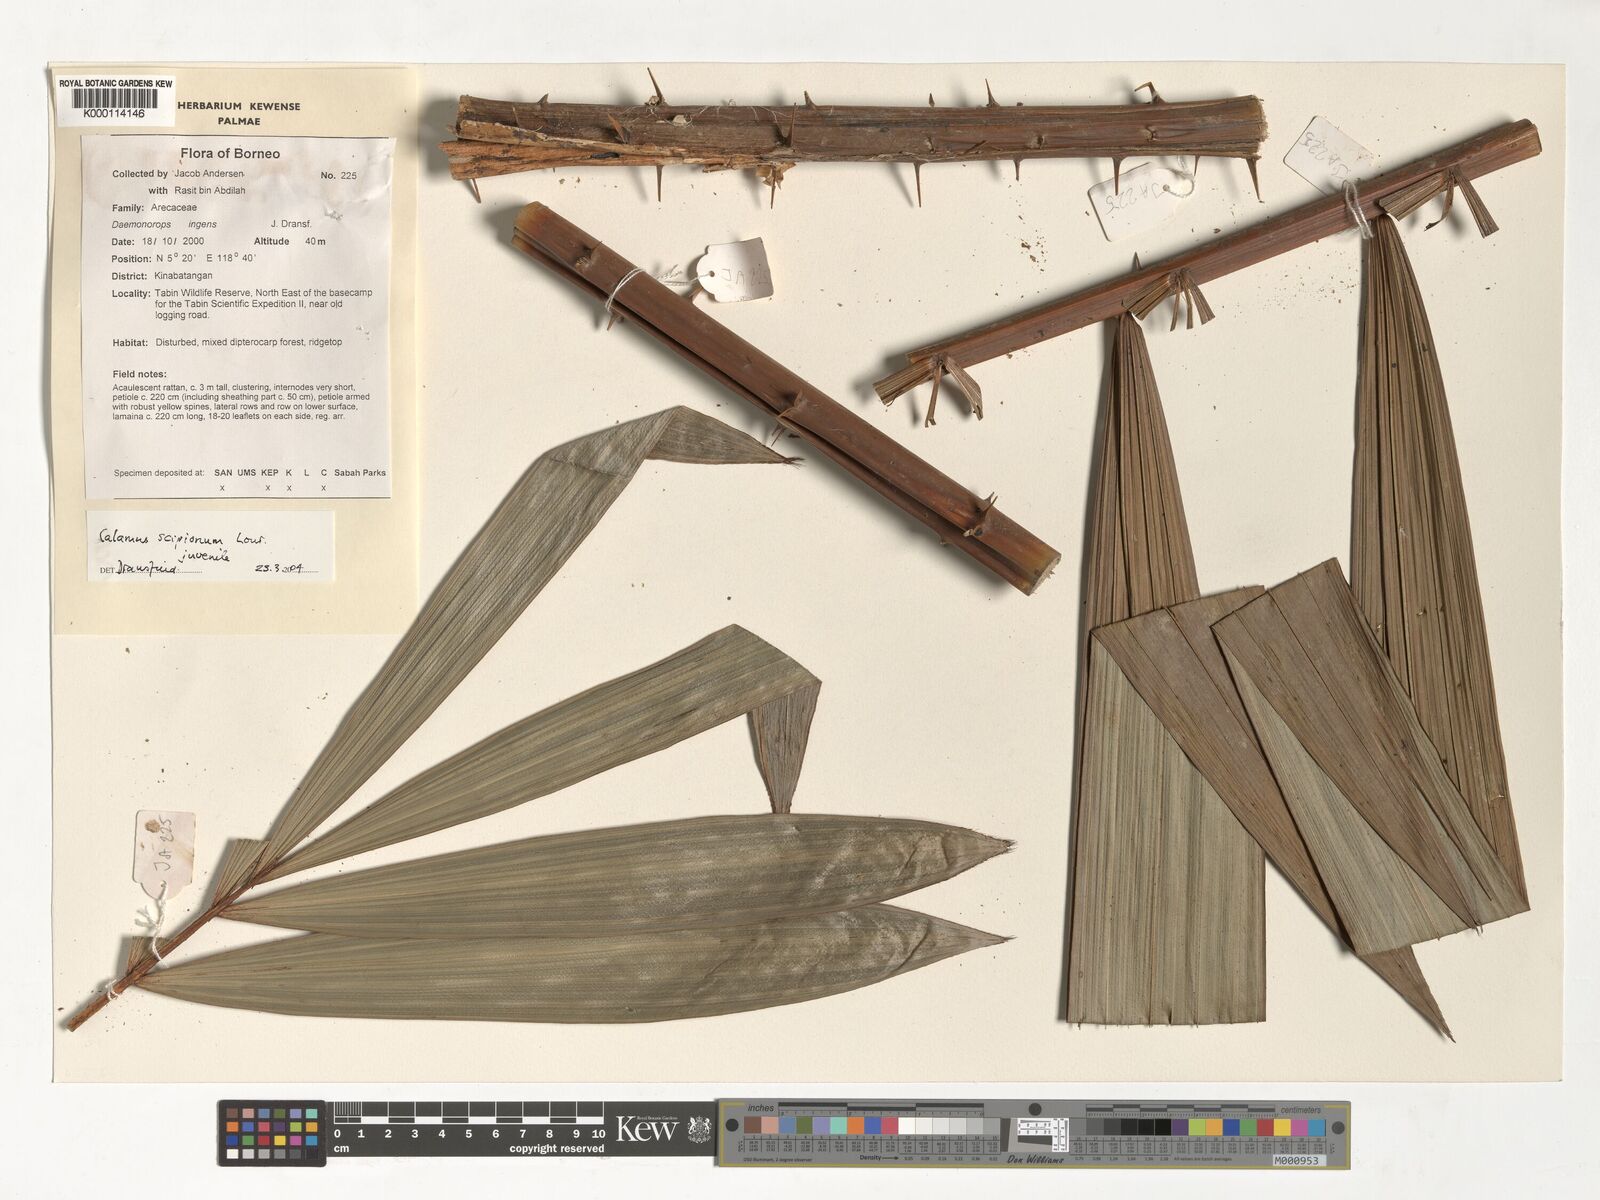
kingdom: Plantae
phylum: Tracheophyta
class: Liliopsida
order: Arecales
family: Arecaceae
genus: Calamus
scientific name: Calamus scipionum
